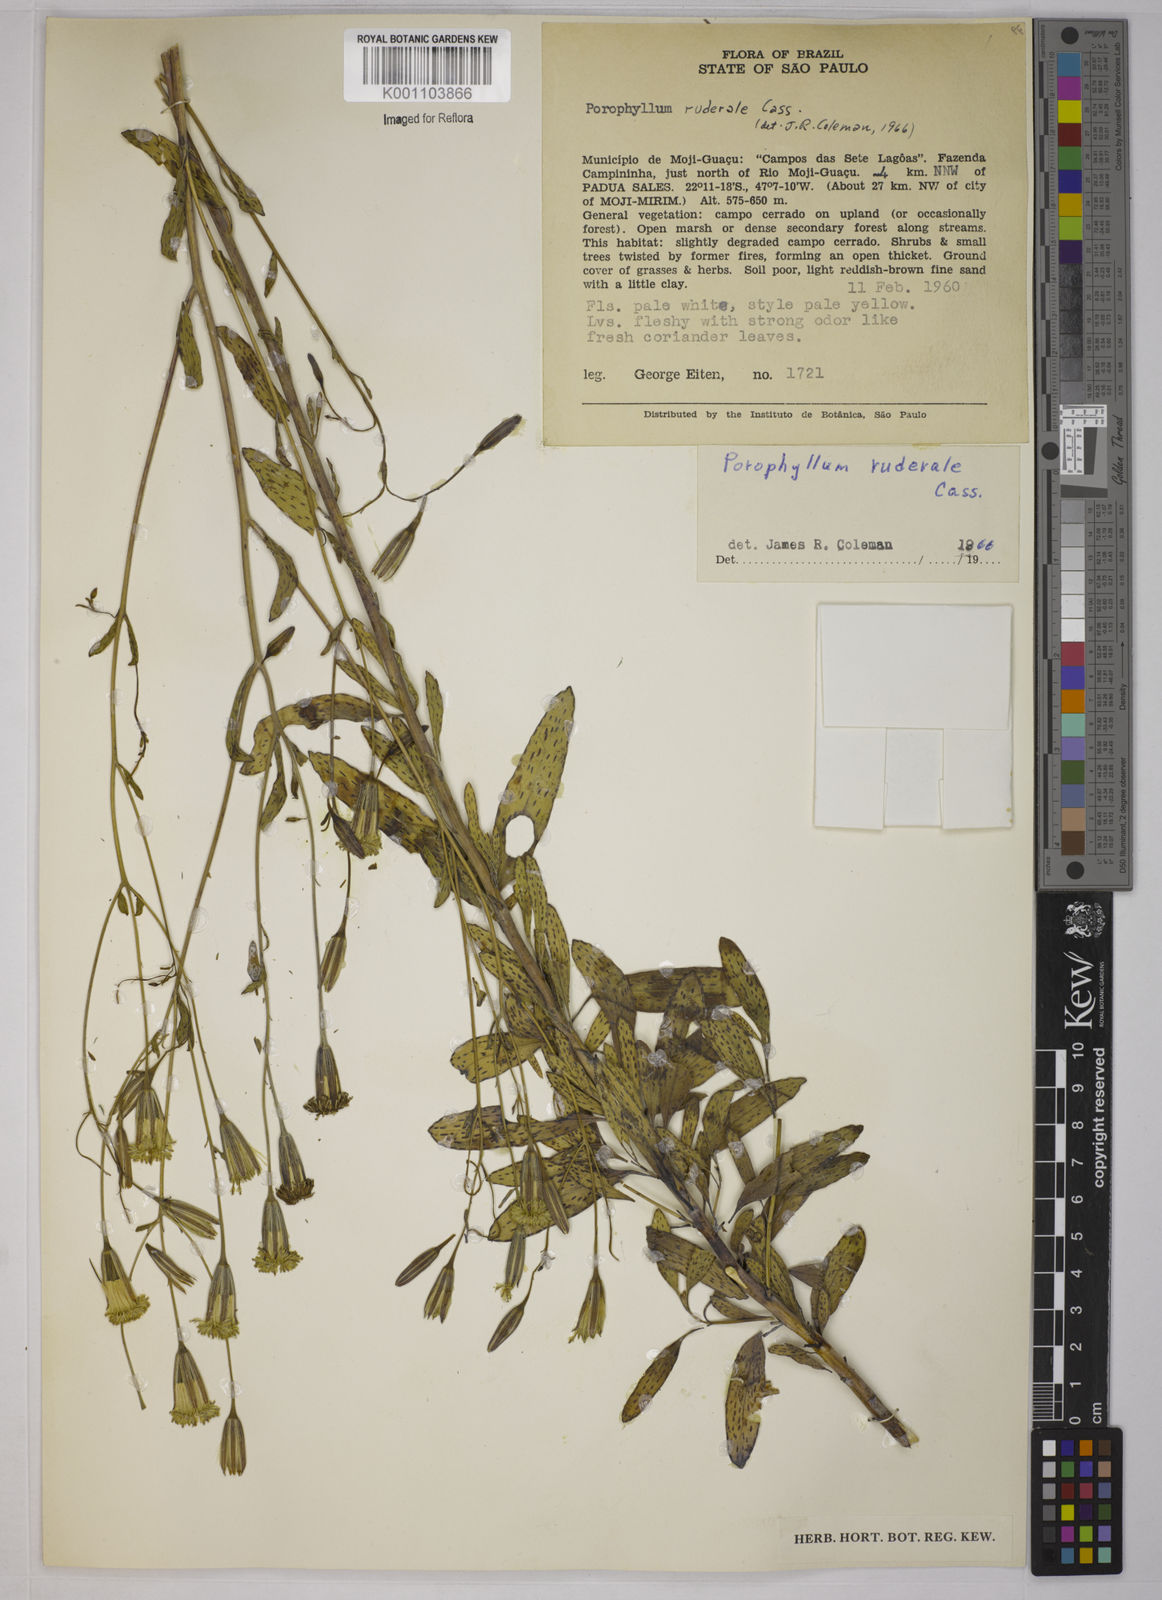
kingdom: Plantae
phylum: Tracheophyta
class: Magnoliopsida
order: Asterales
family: Asteraceae
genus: Porophyllum
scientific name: Porophyllum ruderale
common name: Yerba porosa
